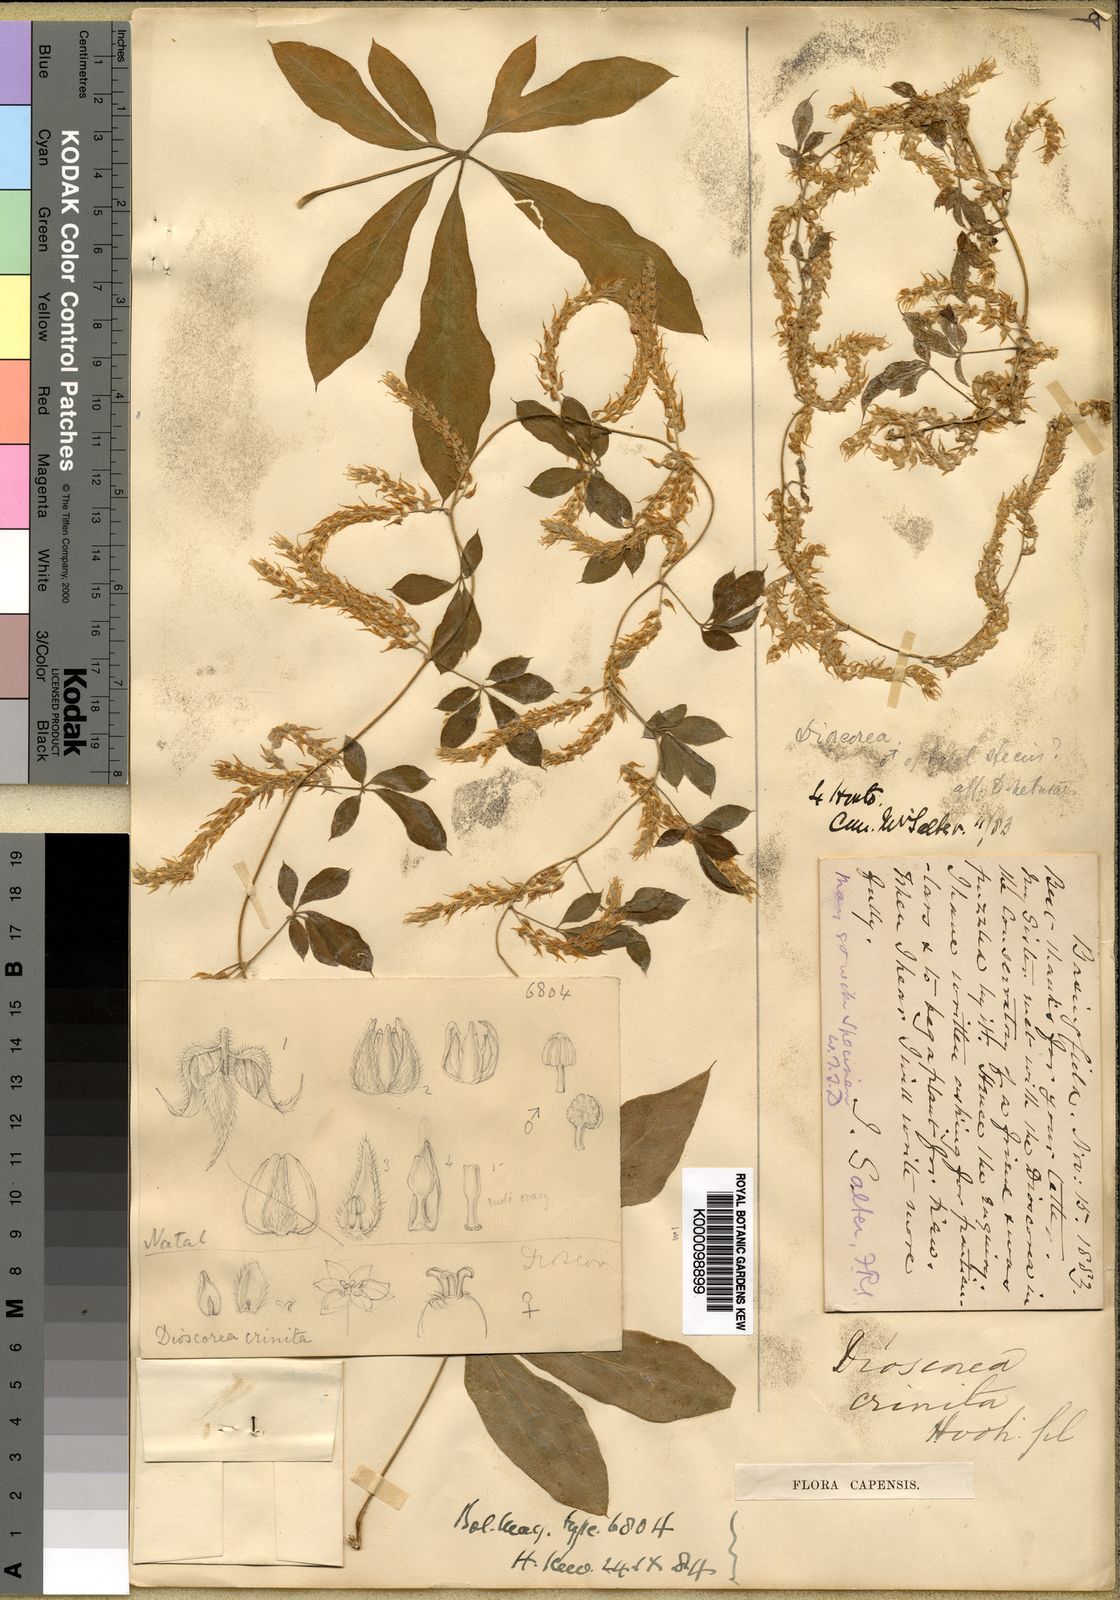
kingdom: Plantae
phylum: Tracheophyta
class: Liliopsida
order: Dioscoreales
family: Dioscoreaceae
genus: Dioscorea
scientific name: Dioscorea quartiniana
